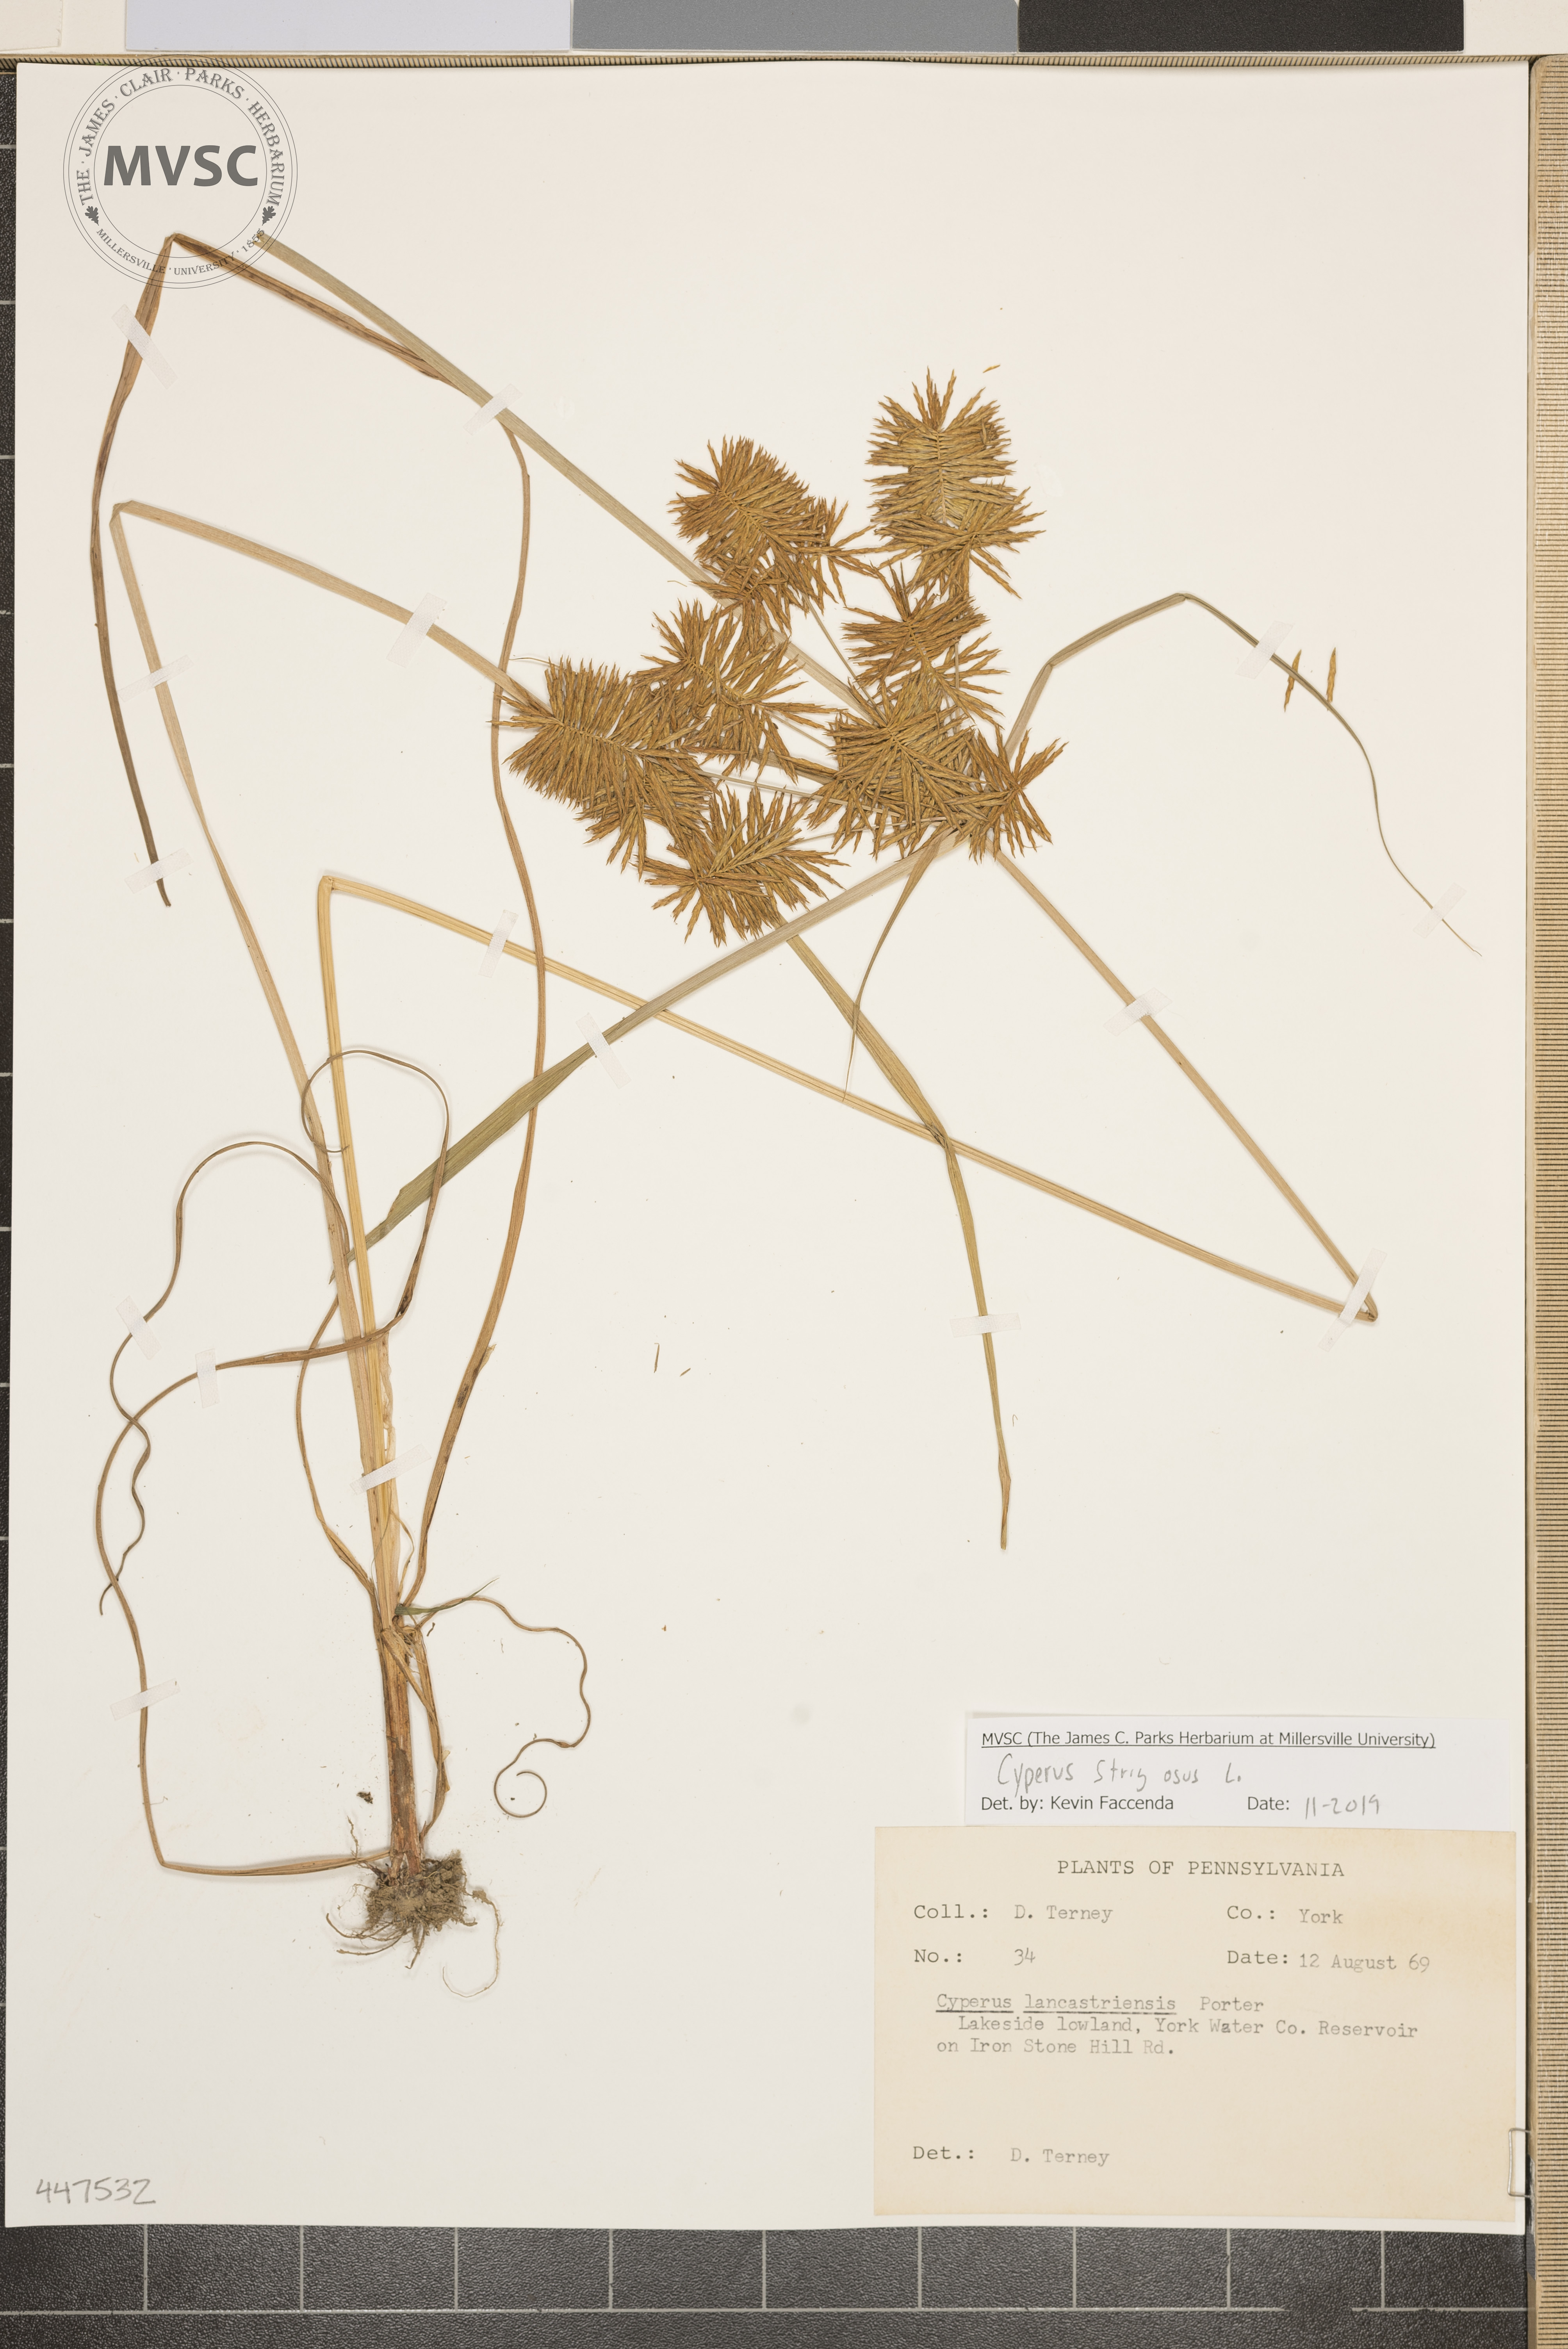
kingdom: Plantae
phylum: Tracheophyta
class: Liliopsida
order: Poales
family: Cyperaceae
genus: Cyperus
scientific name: Cyperus strigosus
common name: False nutsedge
